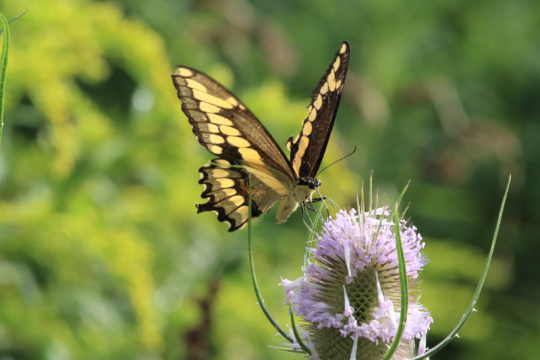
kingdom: Animalia
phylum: Arthropoda
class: Insecta
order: Lepidoptera
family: Papilionidae
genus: Papilio
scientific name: Papilio cresphontes
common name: Eastern Giant Swallowtail
